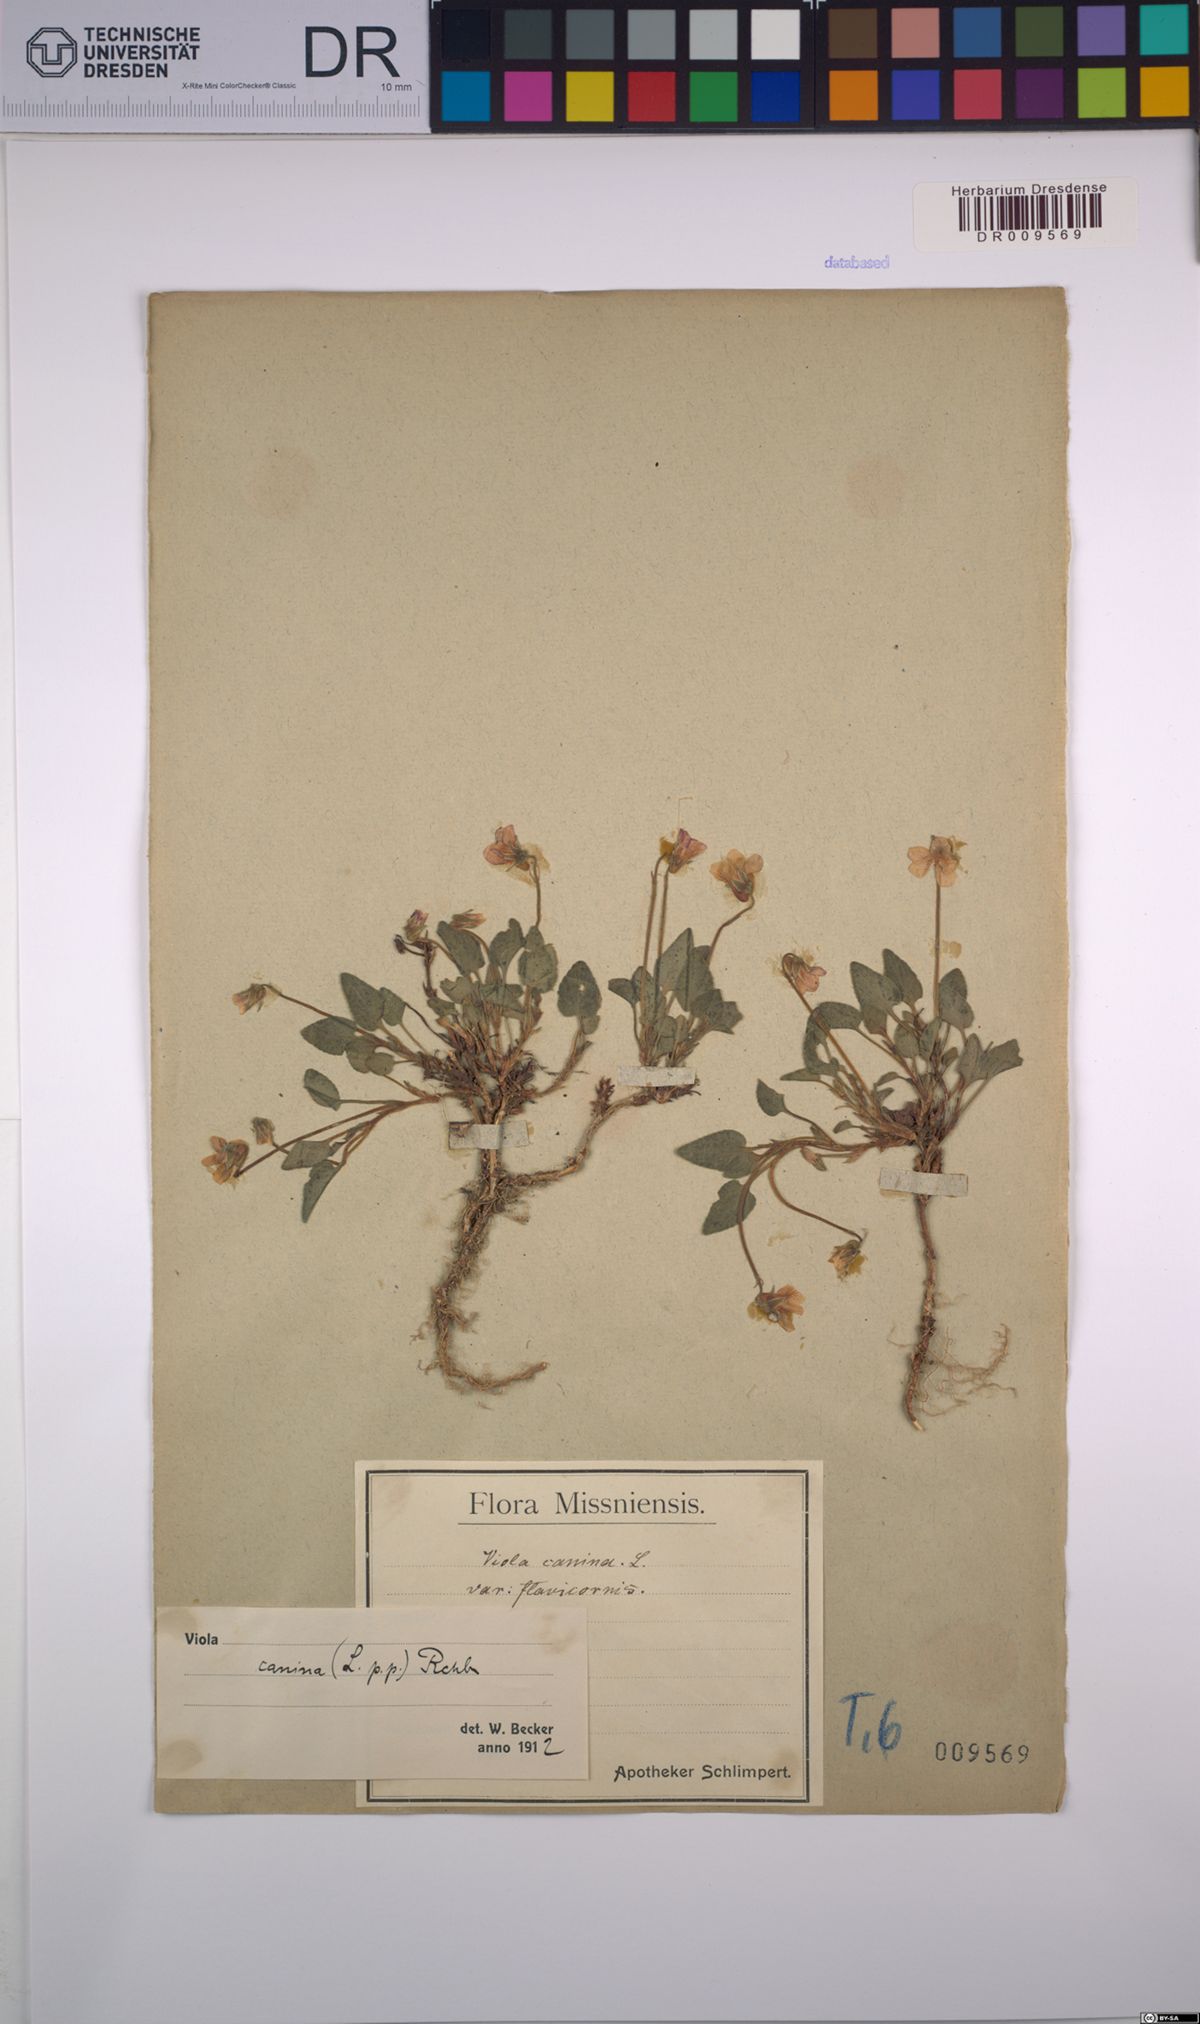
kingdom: Plantae
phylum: Tracheophyta
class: Magnoliopsida
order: Malpighiales
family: Violaceae
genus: Viola
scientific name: Viola canina
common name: Heath dog-violet
